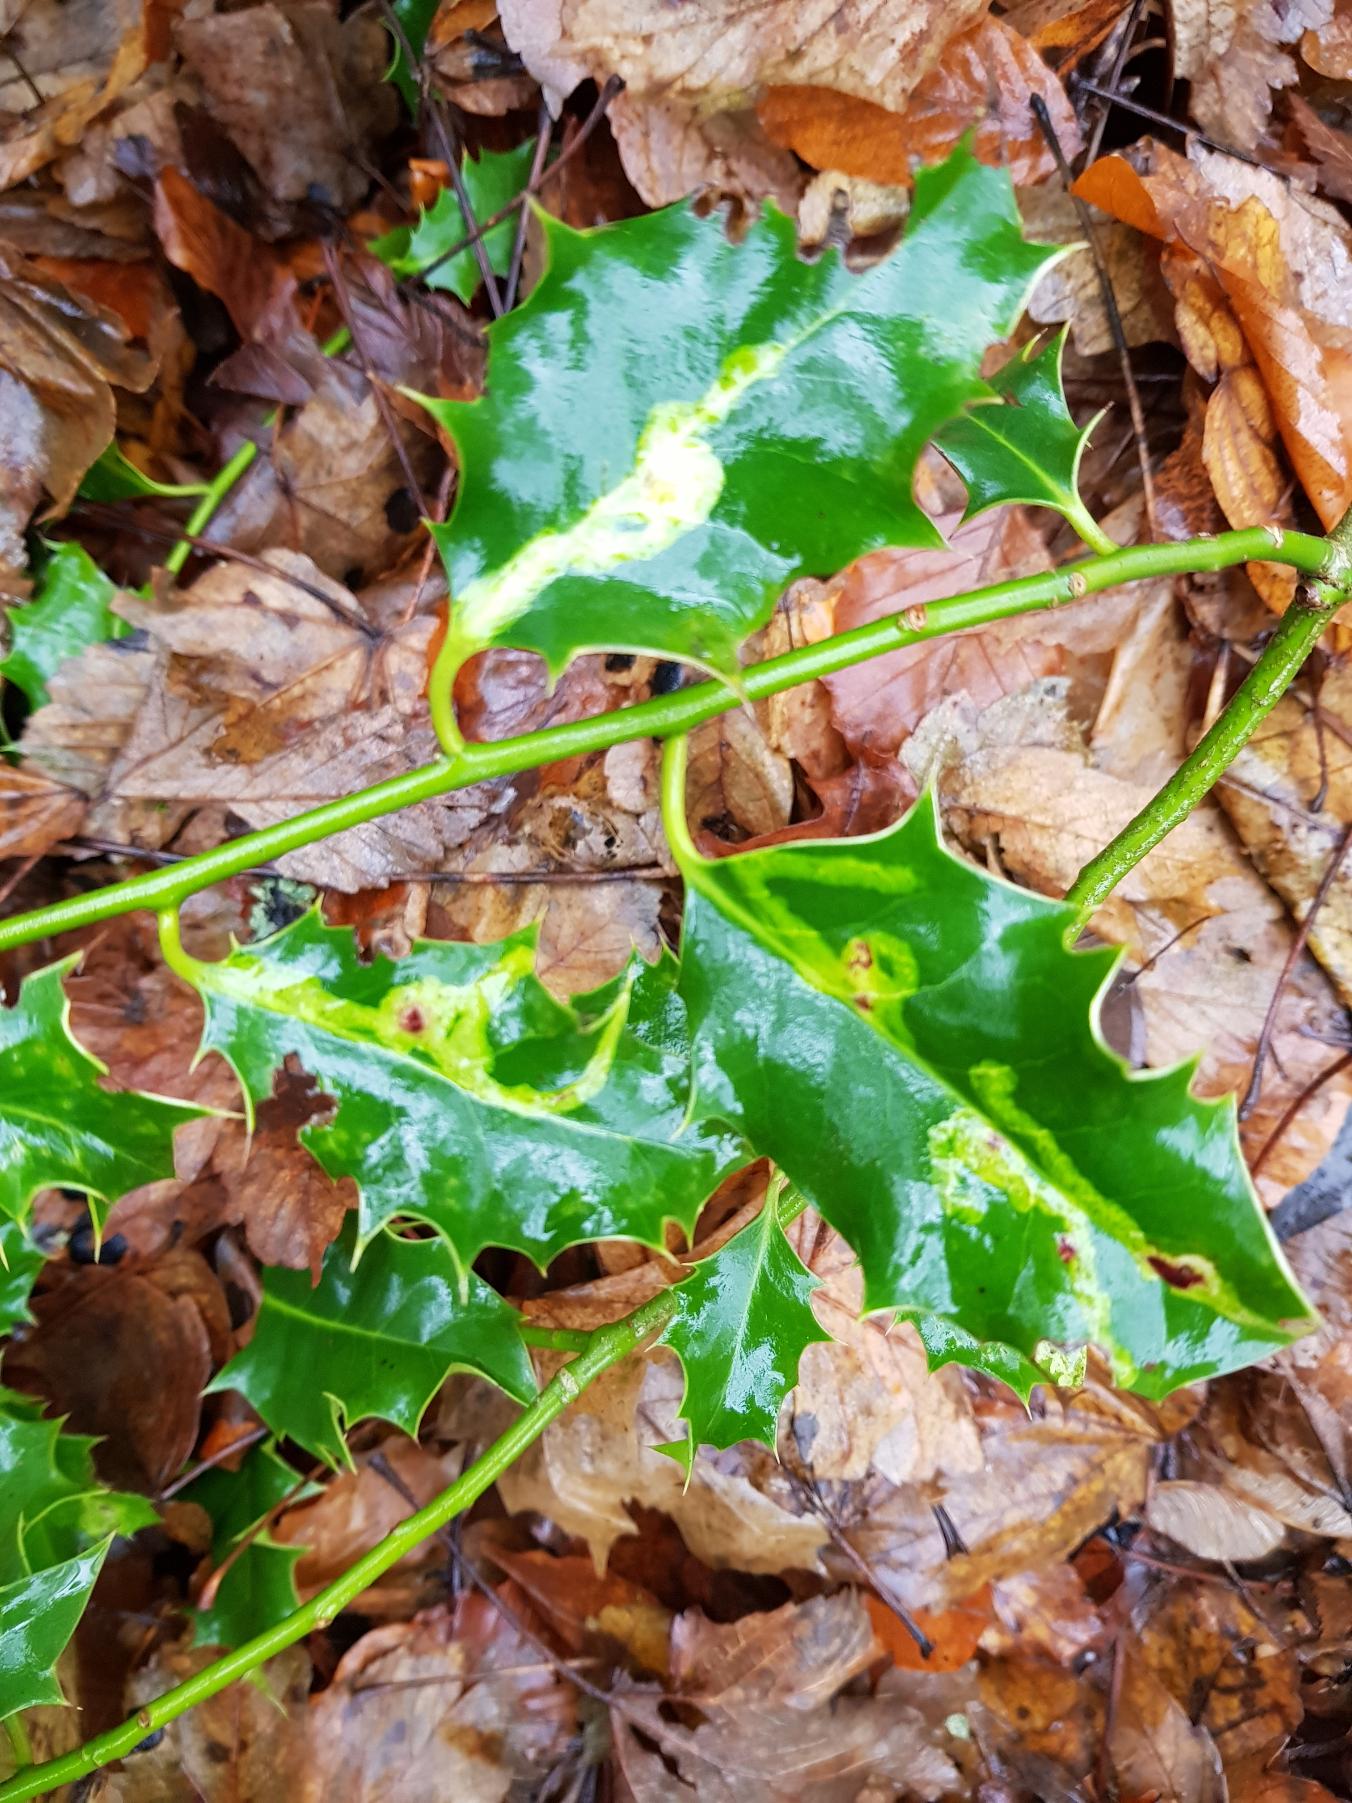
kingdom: Animalia
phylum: Arthropoda
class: Insecta
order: Diptera
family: Agromyzidae
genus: Phytomyza
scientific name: Phytomyza ilicis
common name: Kristtornminérflue
